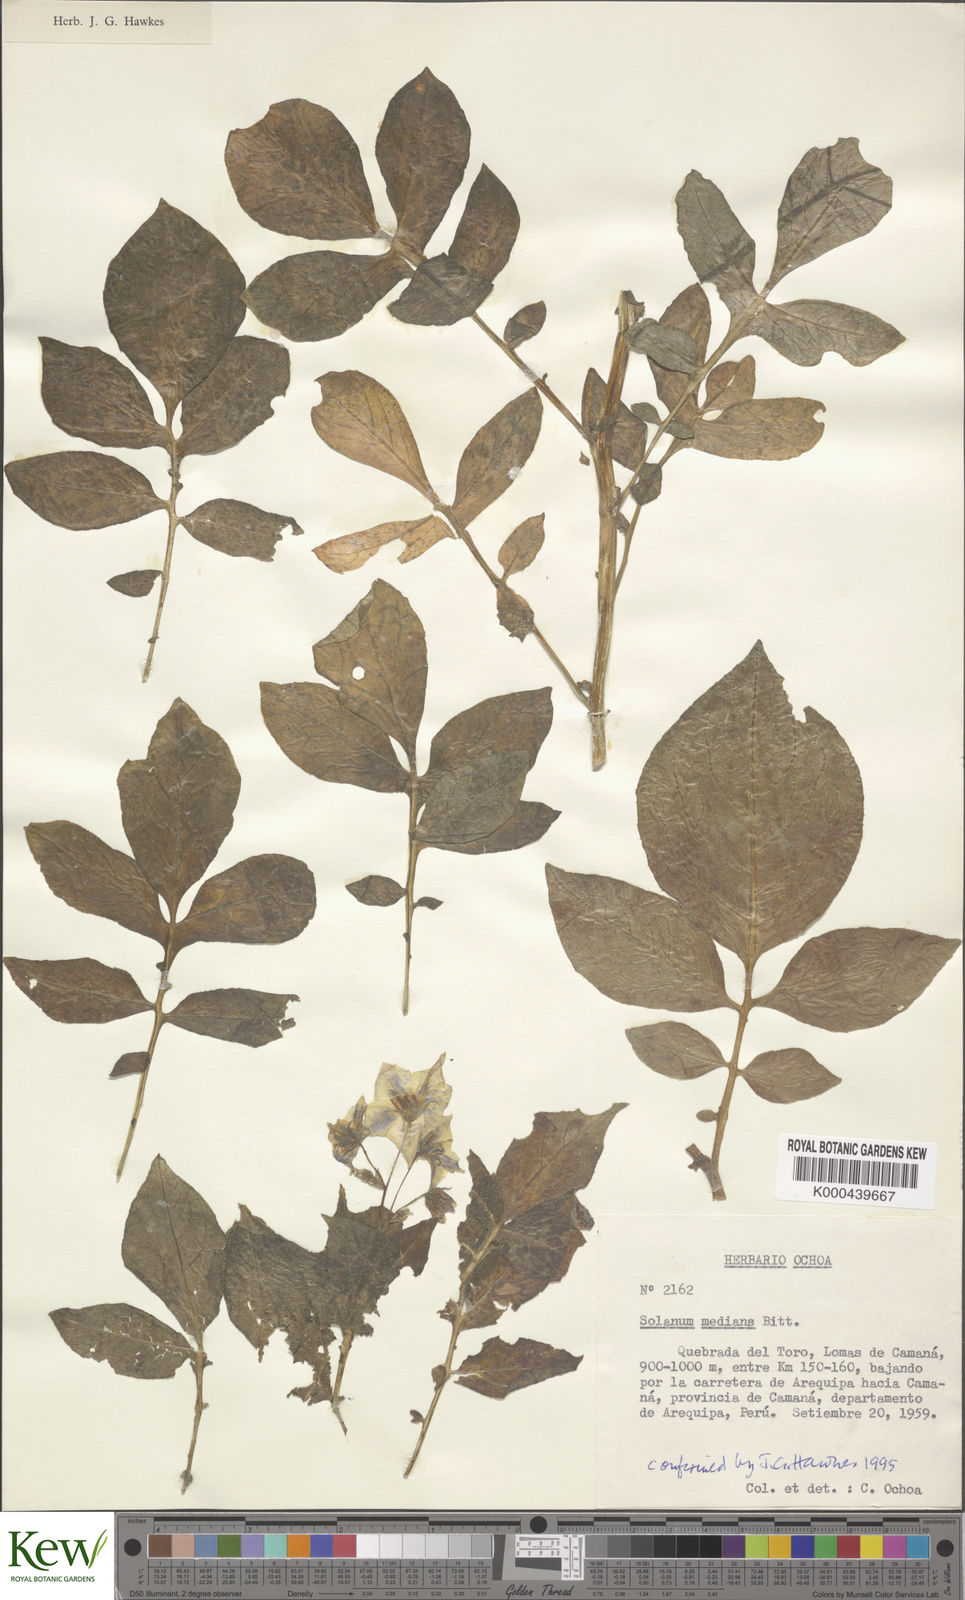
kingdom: Plantae
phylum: Tracheophyta
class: Magnoliopsida
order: Solanales
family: Solanaceae
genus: Solanum
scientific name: Solanum medians
